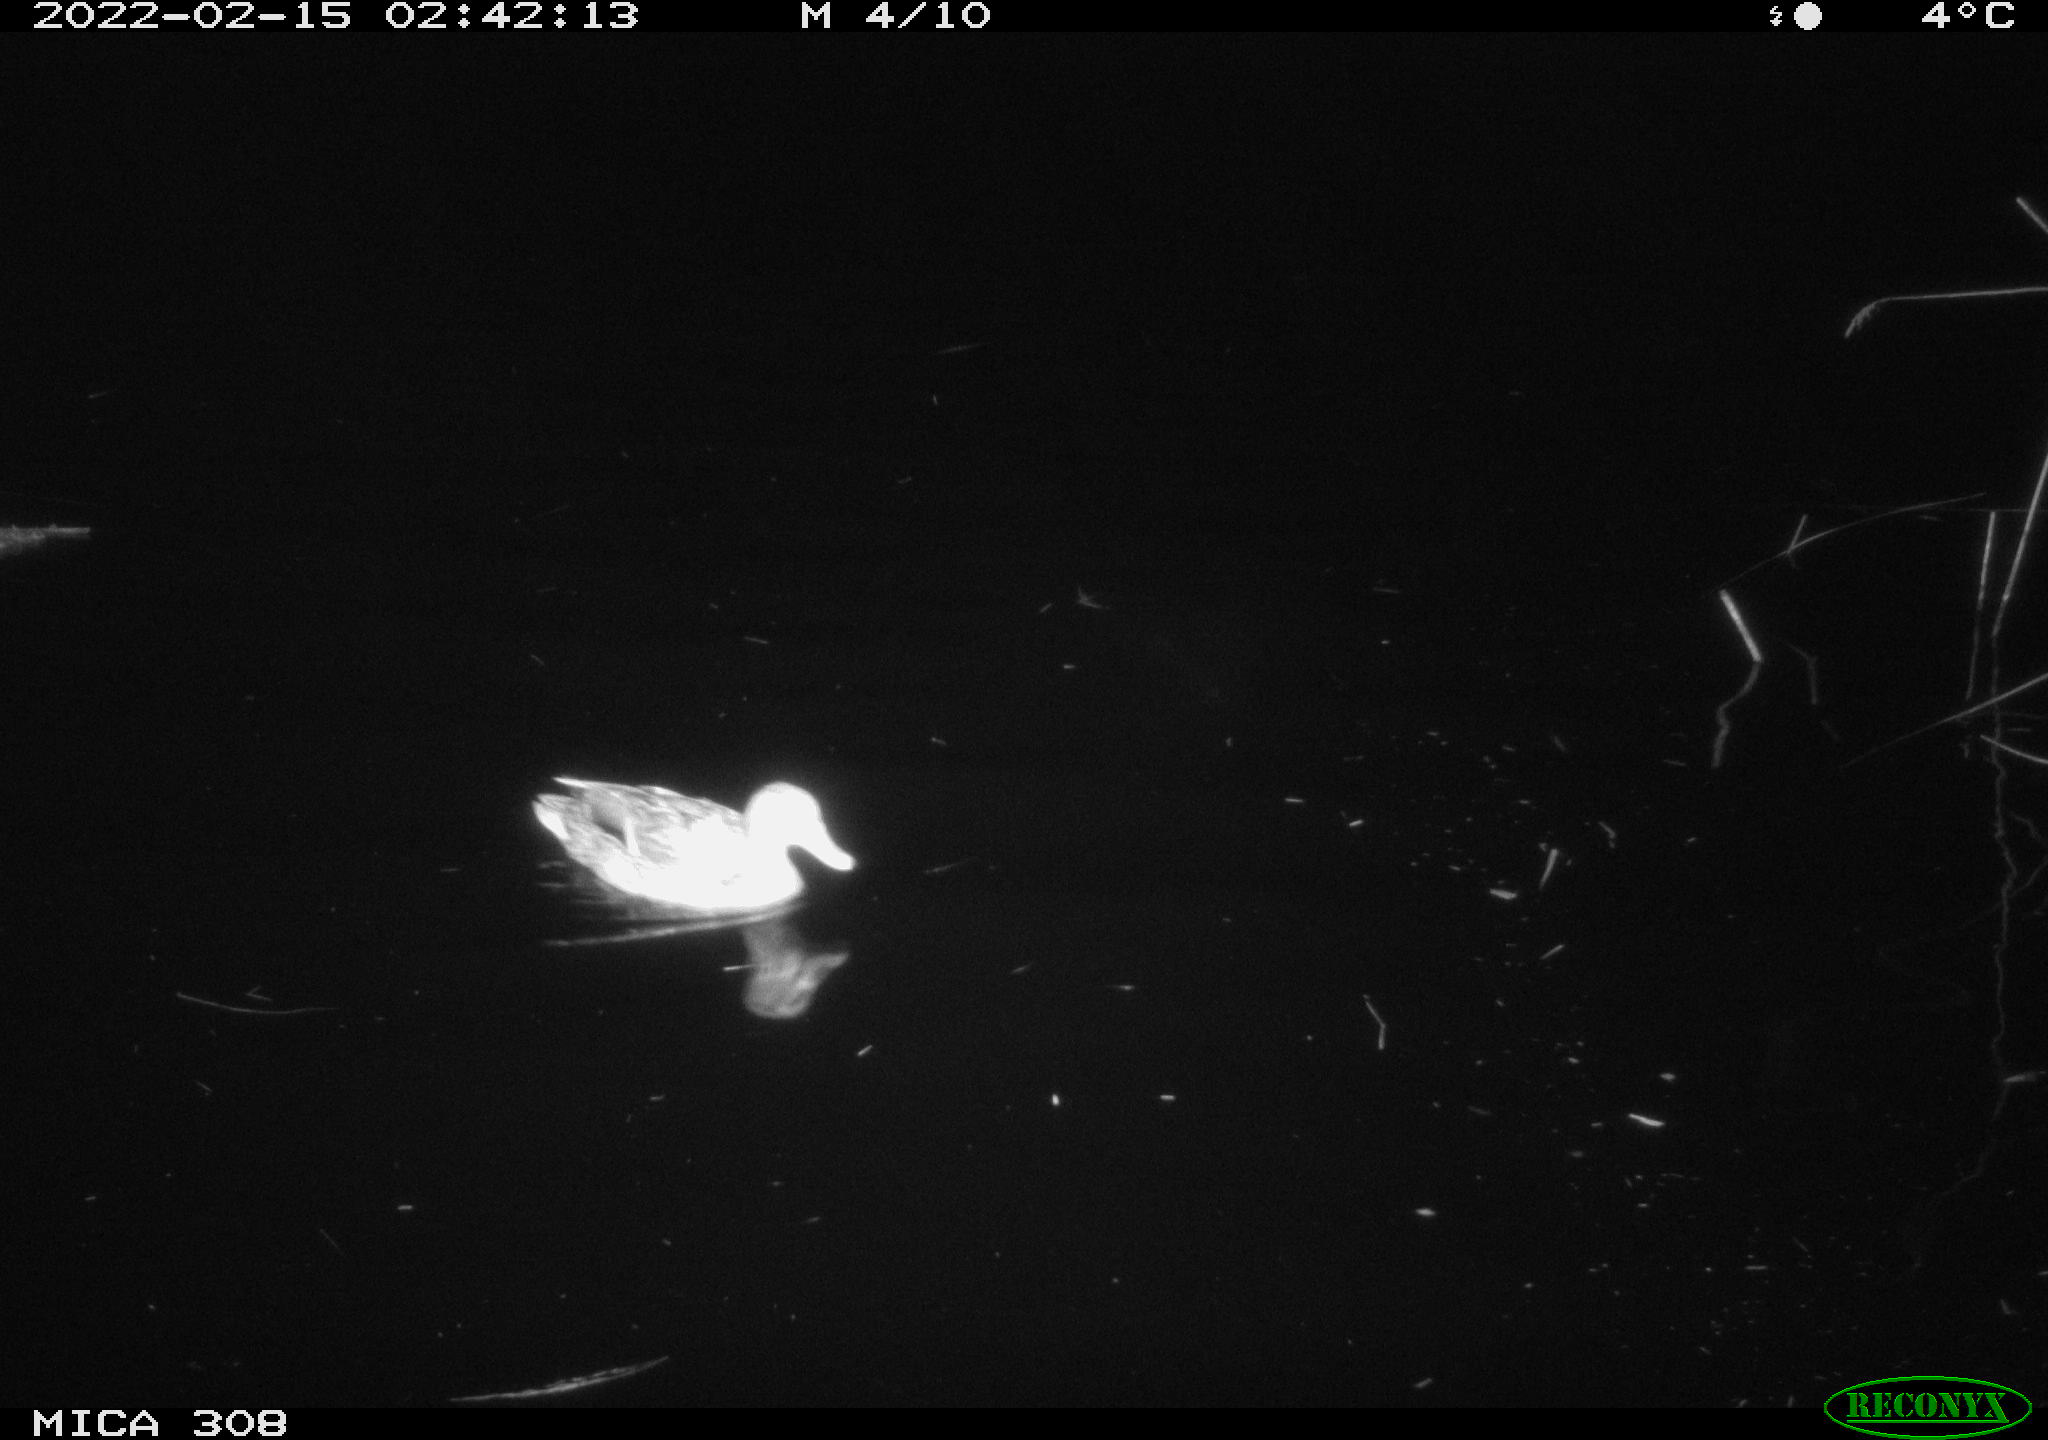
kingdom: Animalia
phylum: Chordata
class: Aves
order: Anseriformes
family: Anatidae
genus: Anas
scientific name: Anas platyrhynchos
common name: Mallard
